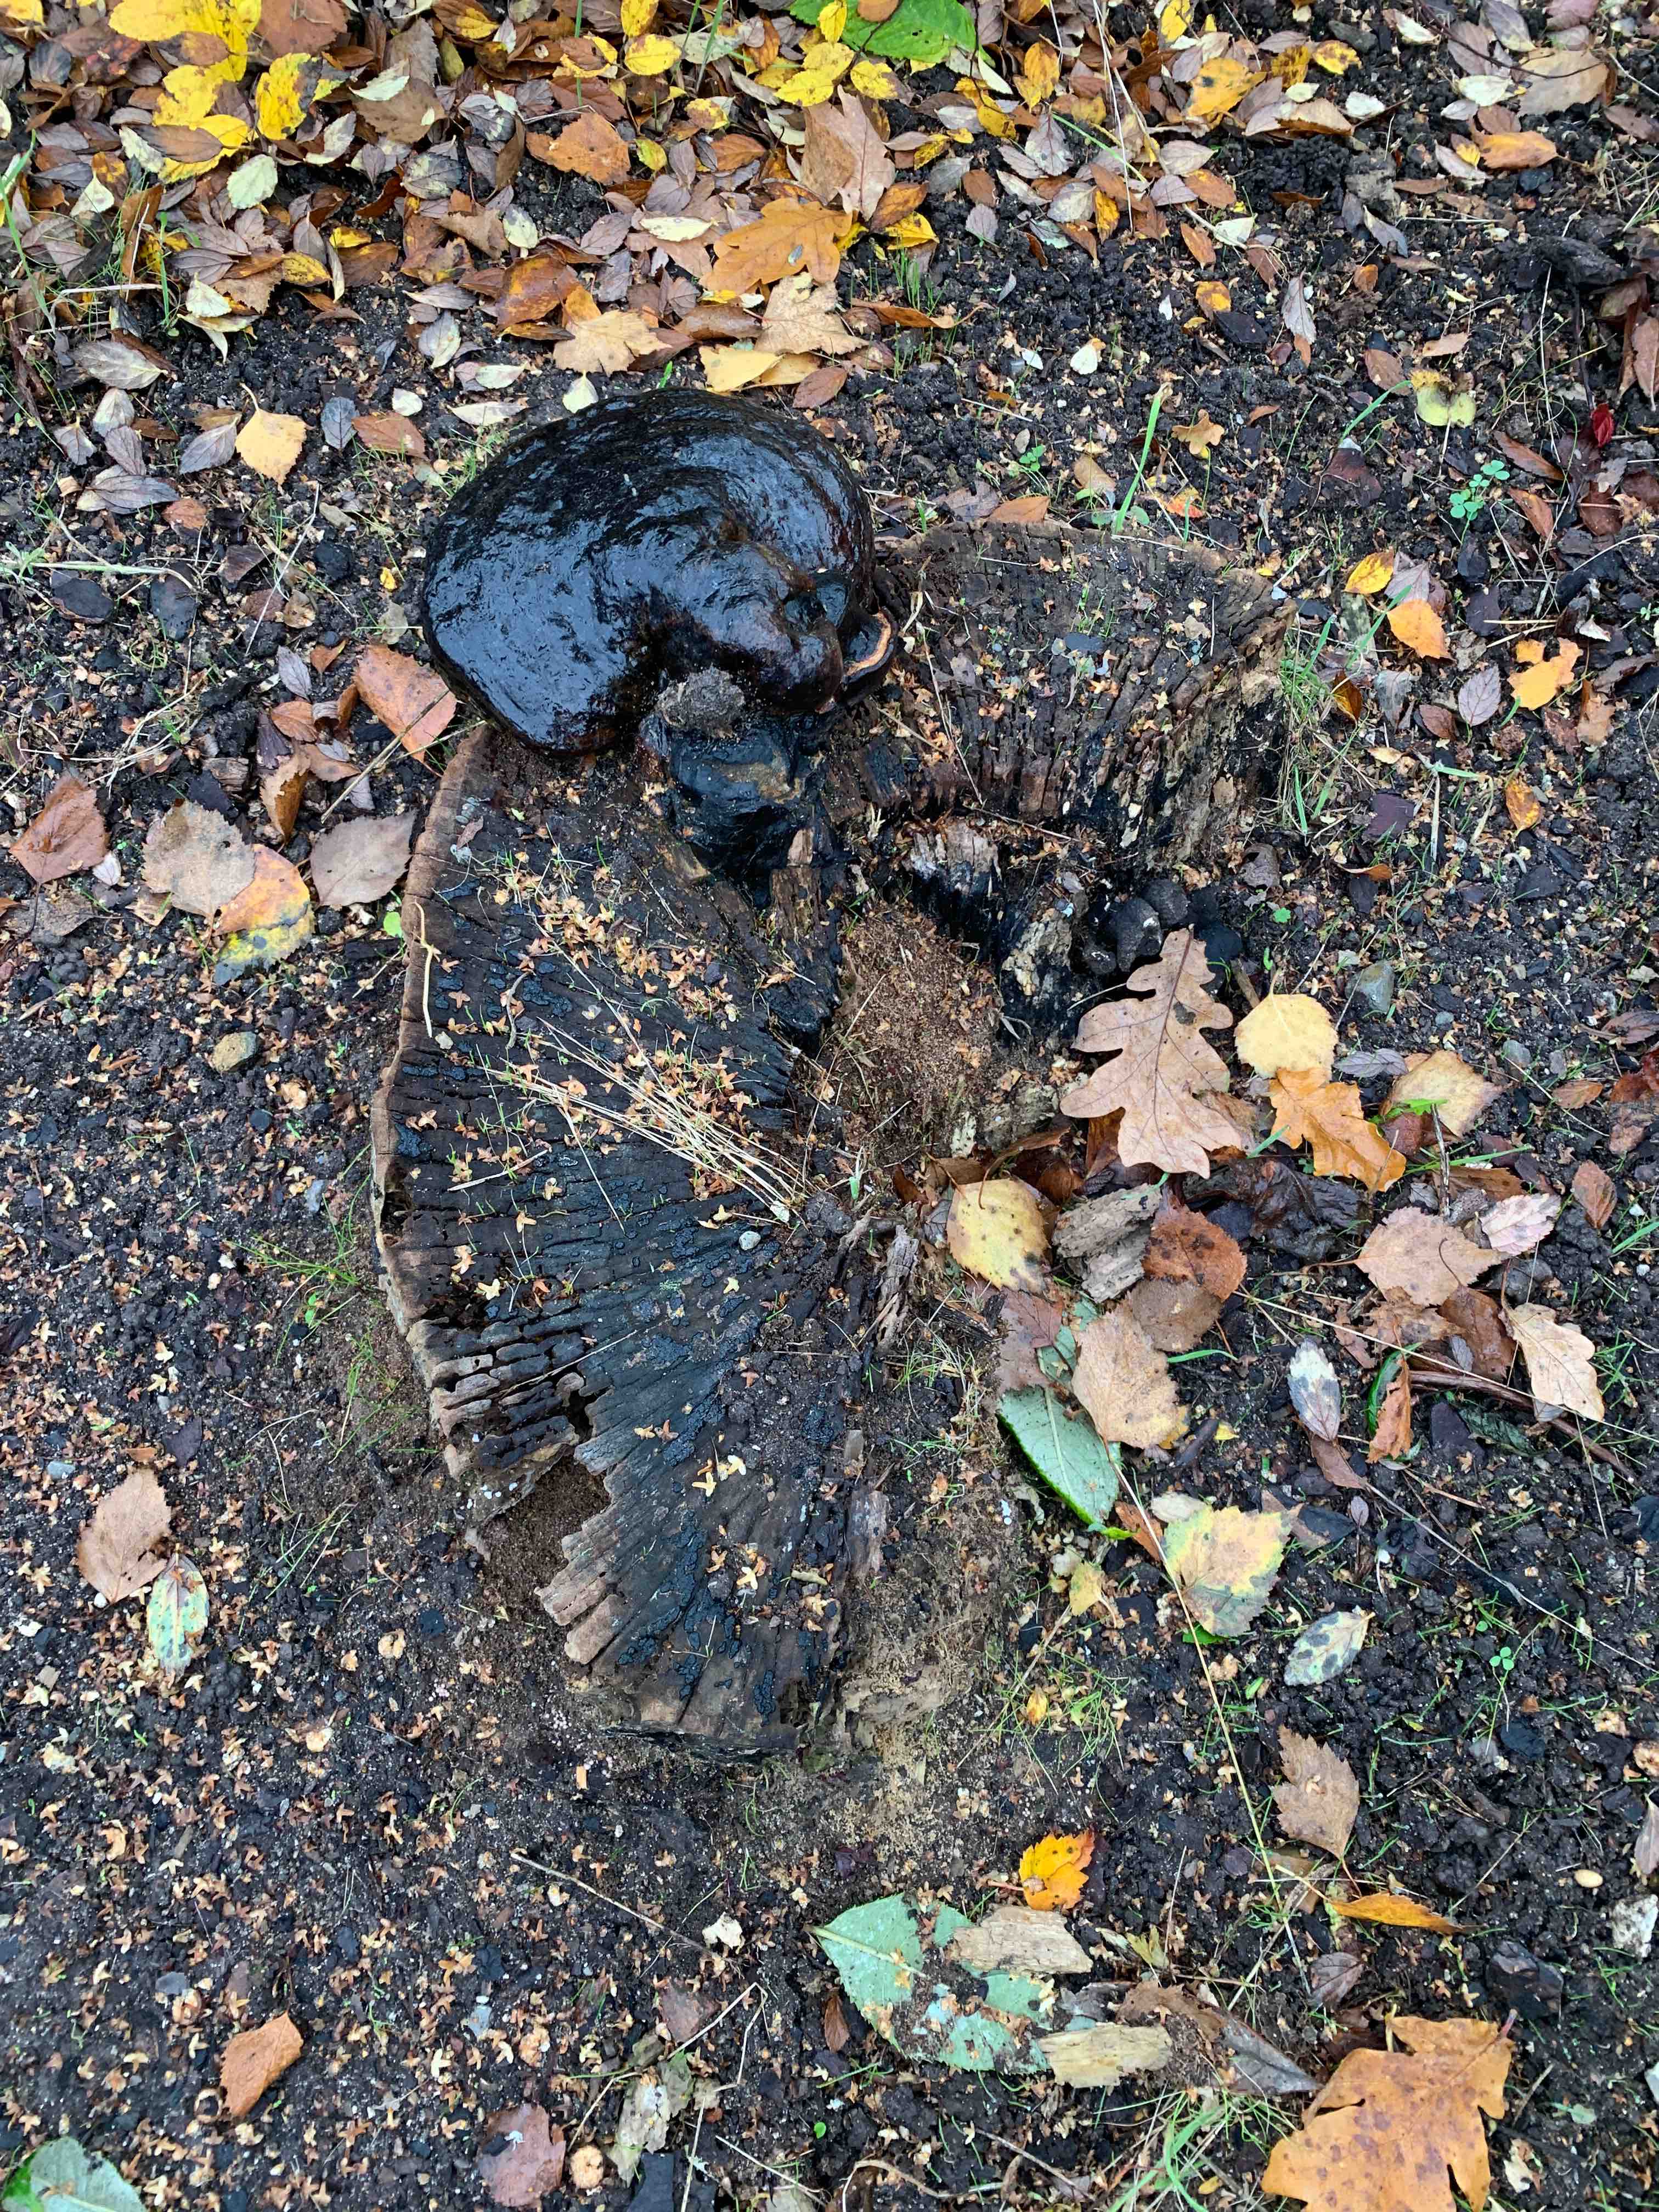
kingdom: Fungi
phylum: Basidiomycota
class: Agaricomycetes
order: Polyporales
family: Polyporaceae
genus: Fomes
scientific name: Fomes fomentarius
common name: tøndersvamp
